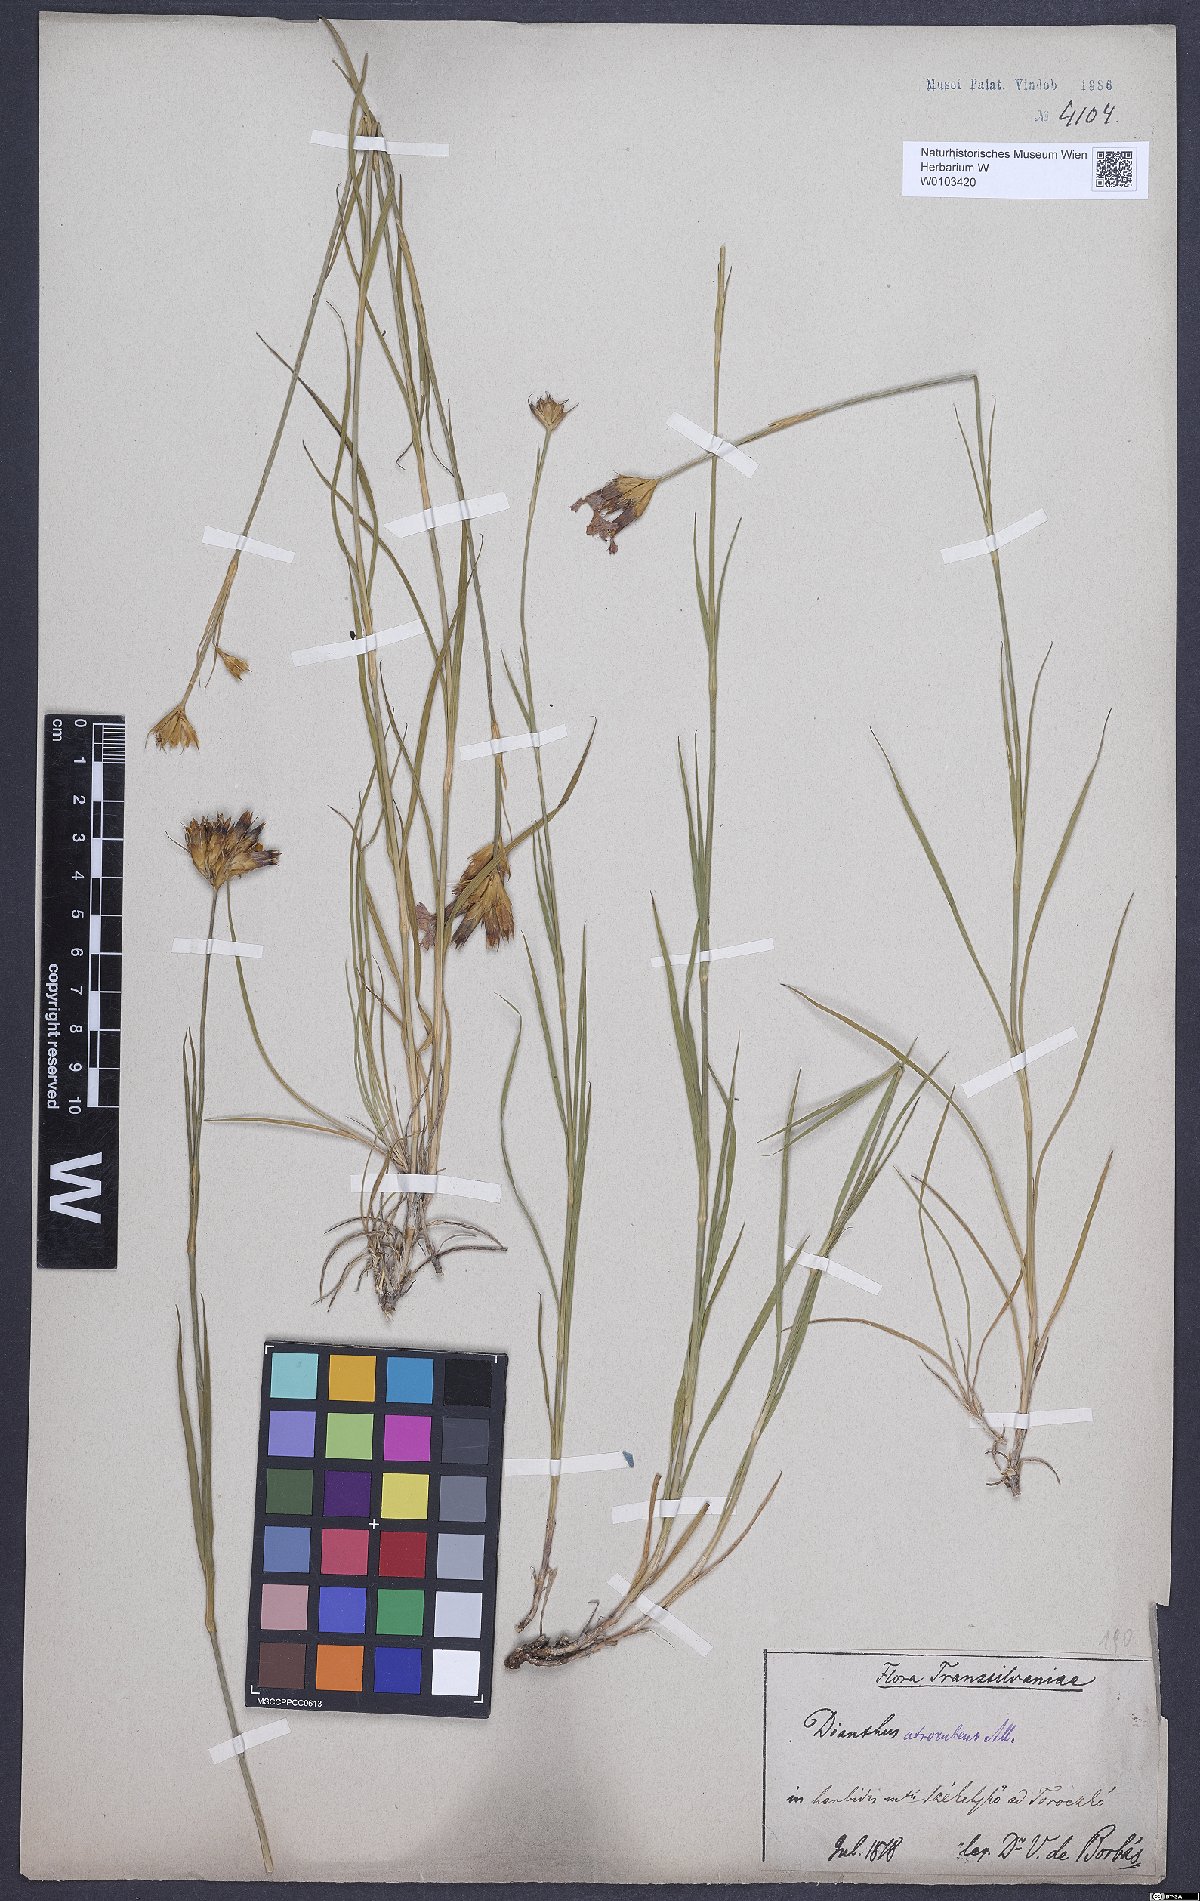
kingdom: Plantae
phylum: Tracheophyta
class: Magnoliopsida
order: Caryophyllales
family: Caryophyllaceae
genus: Dianthus
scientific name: Dianthus carthusianorum
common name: Carthusian pink
